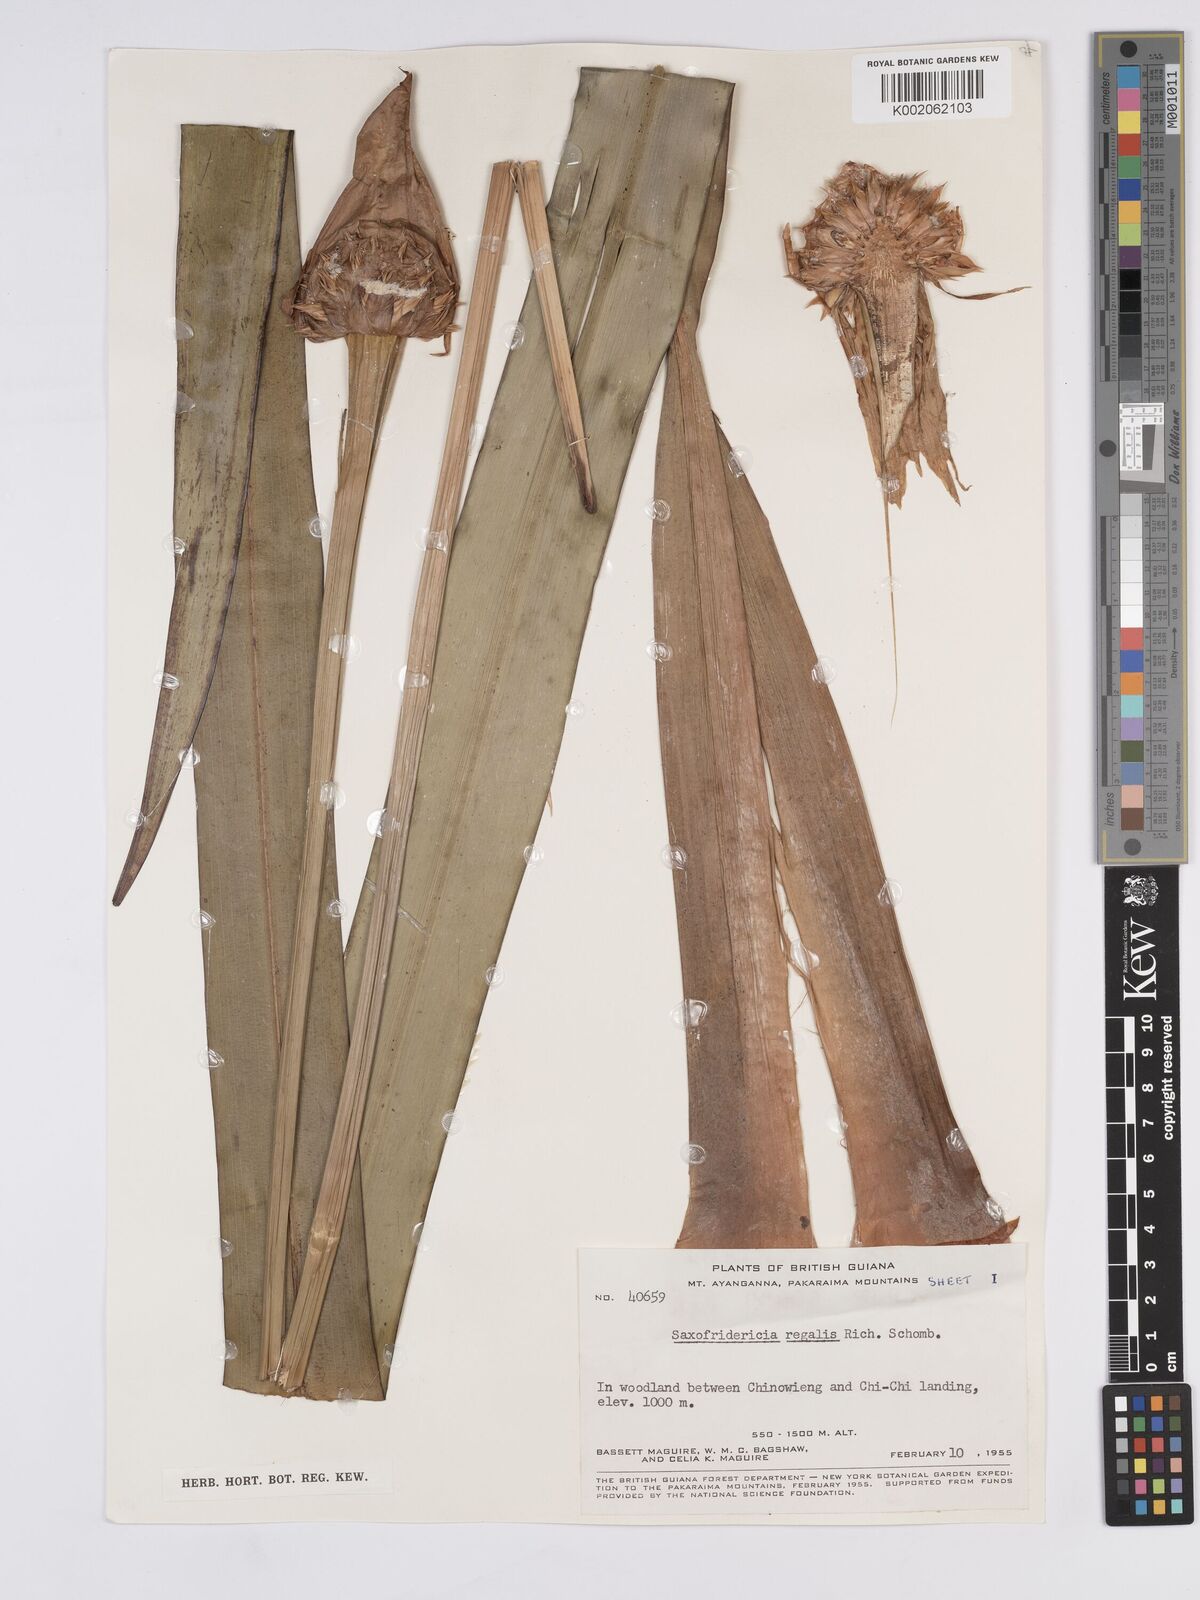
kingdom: Plantae
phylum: Tracheophyta
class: Liliopsida
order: Poales
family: Rapateaceae
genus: Saxofridericia
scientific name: Saxofridericia regalis
